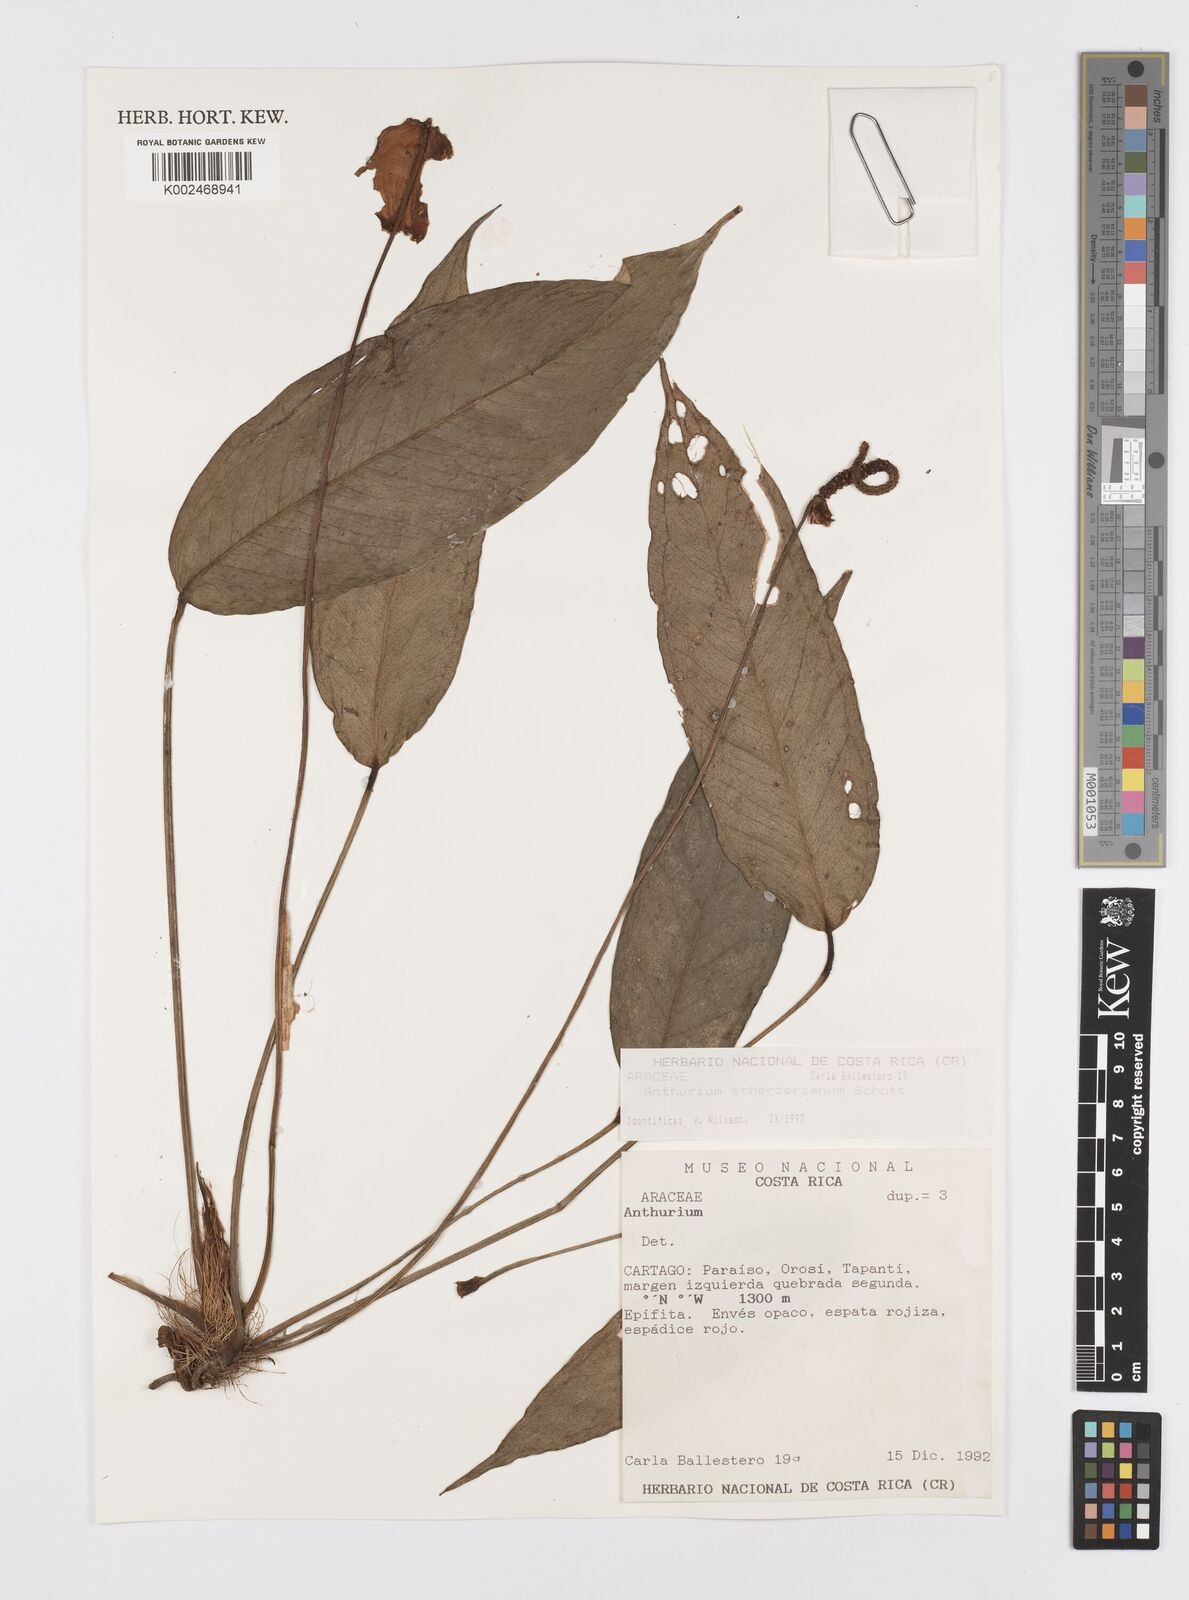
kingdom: Plantae
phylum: Tracheophyta
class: Liliopsida
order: Alismatales
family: Araceae
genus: Anthurium
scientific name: Anthurium scherzerianum
